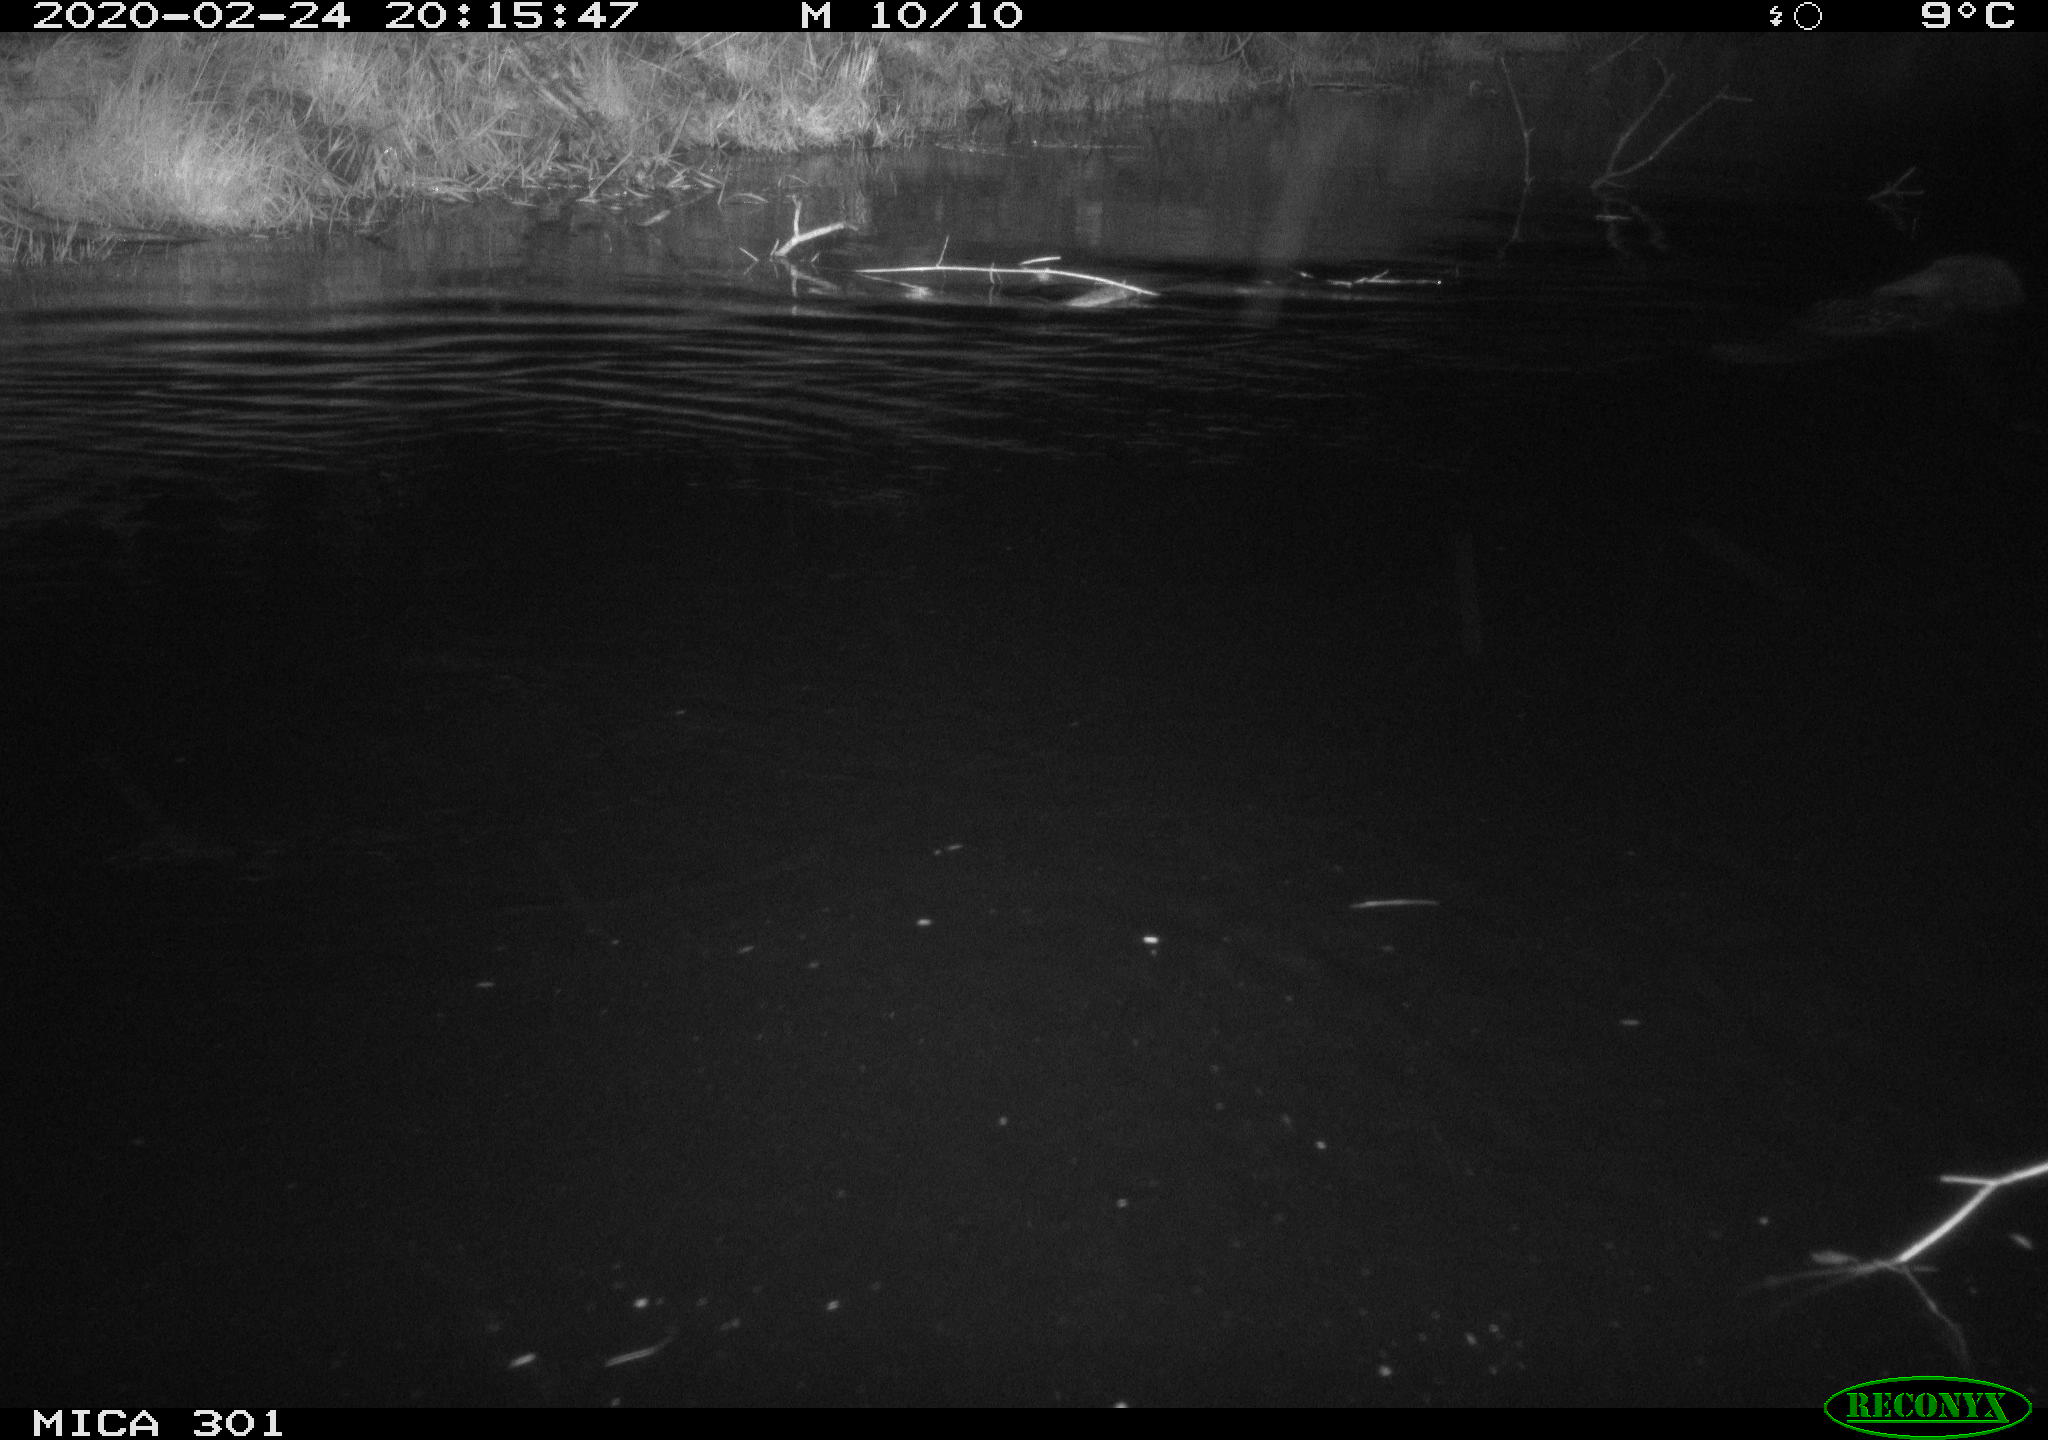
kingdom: Animalia
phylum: Chordata
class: Mammalia
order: Rodentia
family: Castoridae
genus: Castor
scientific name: Castor fiber
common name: Eurasian beaver
